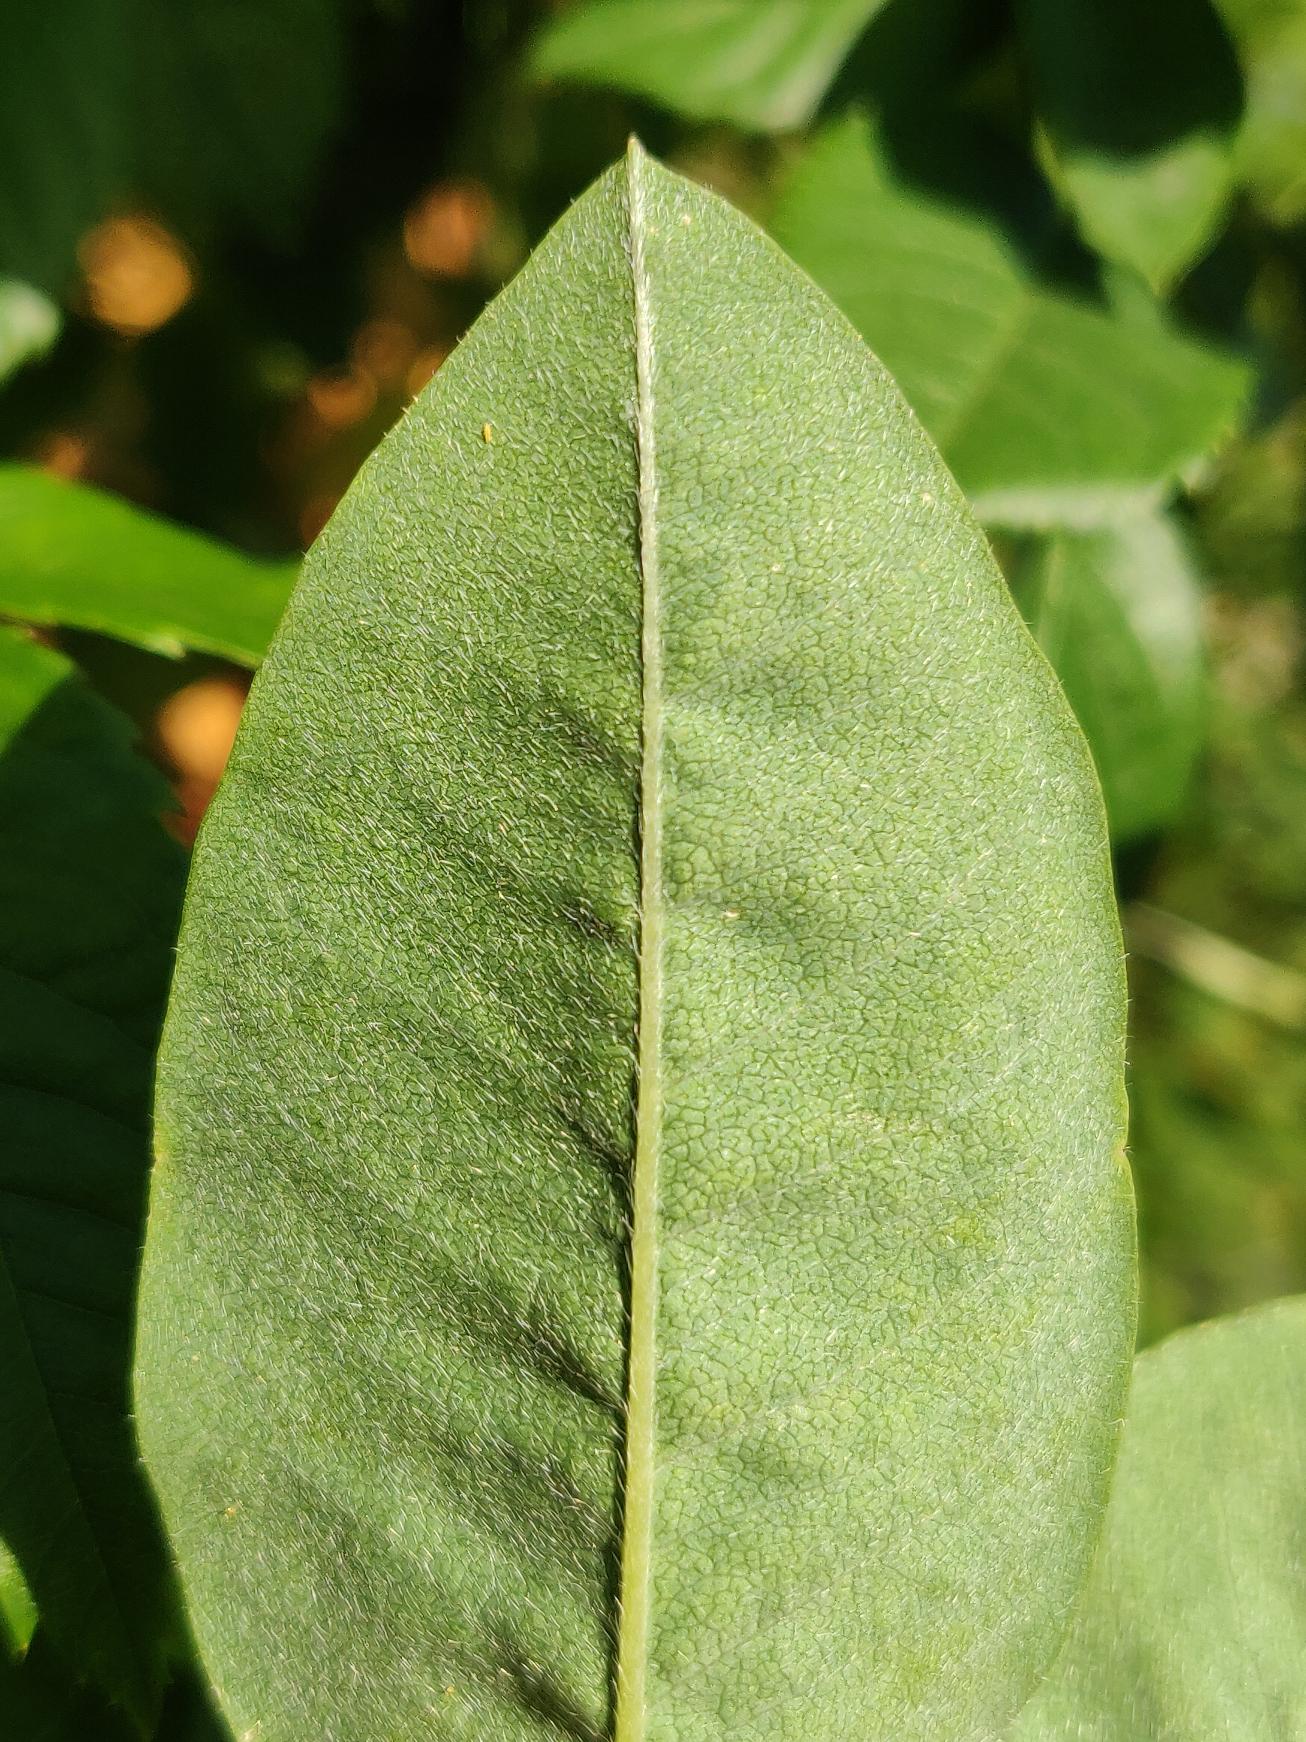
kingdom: Plantae
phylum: Tracheophyta
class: Magnoliopsida
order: Fabales
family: Fabaceae
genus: Laburnum
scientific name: Laburnum anagyroides
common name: Guldregn
